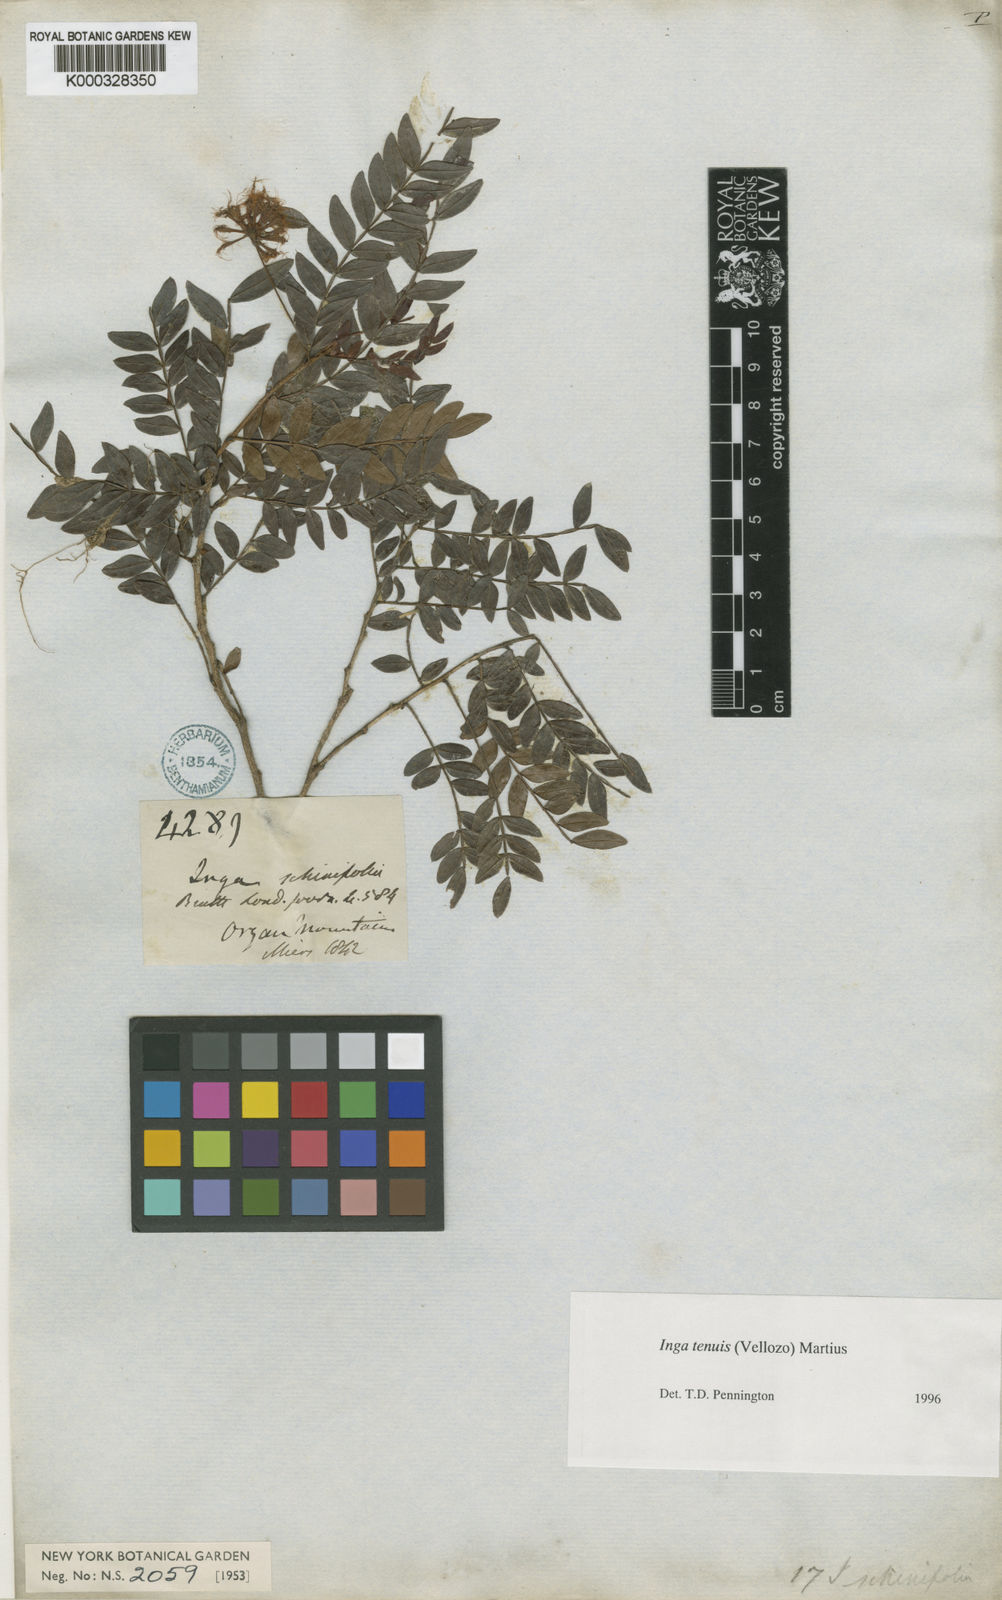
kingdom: Plantae
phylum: Tracheophyta
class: Magnoliopsida
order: Fabales
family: Fabaceae
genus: Inga
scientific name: Inga tenuis
